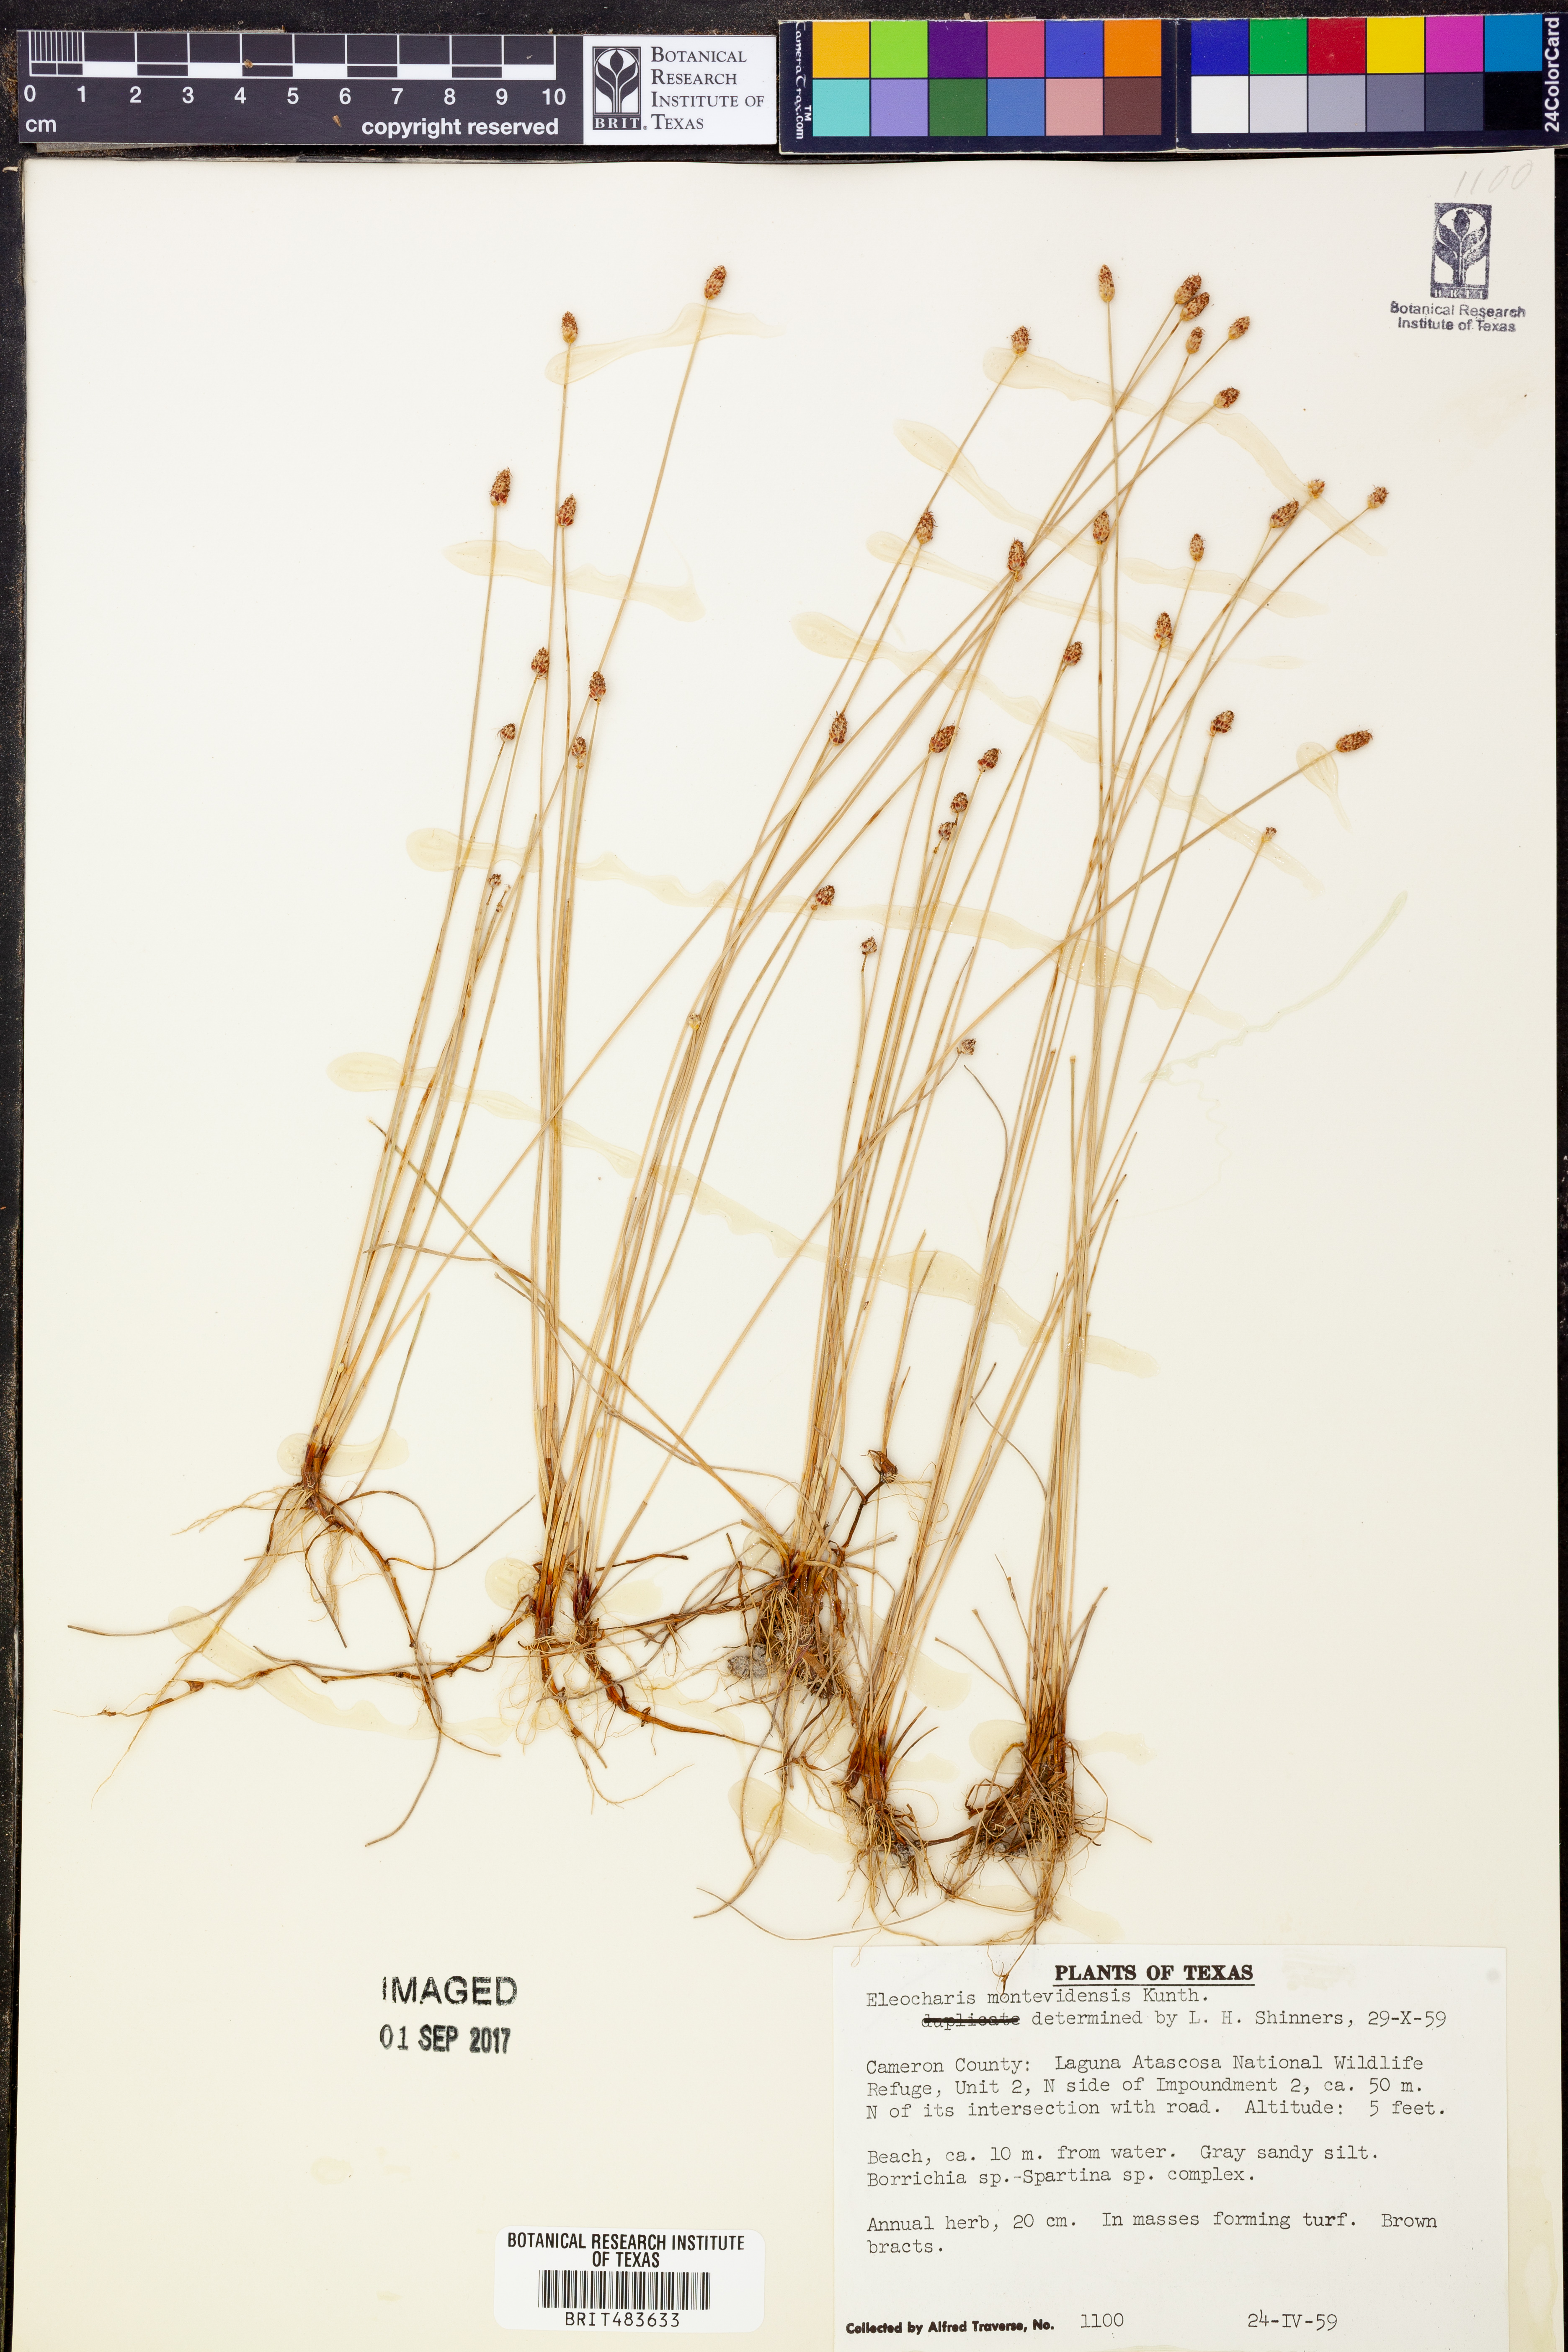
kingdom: Plantae
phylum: Tracheophyta
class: Liliopsida
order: Poales
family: Cyperaceae
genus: Eleocharis
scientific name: Eleocharis montevidensis
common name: Sand spike-rush
